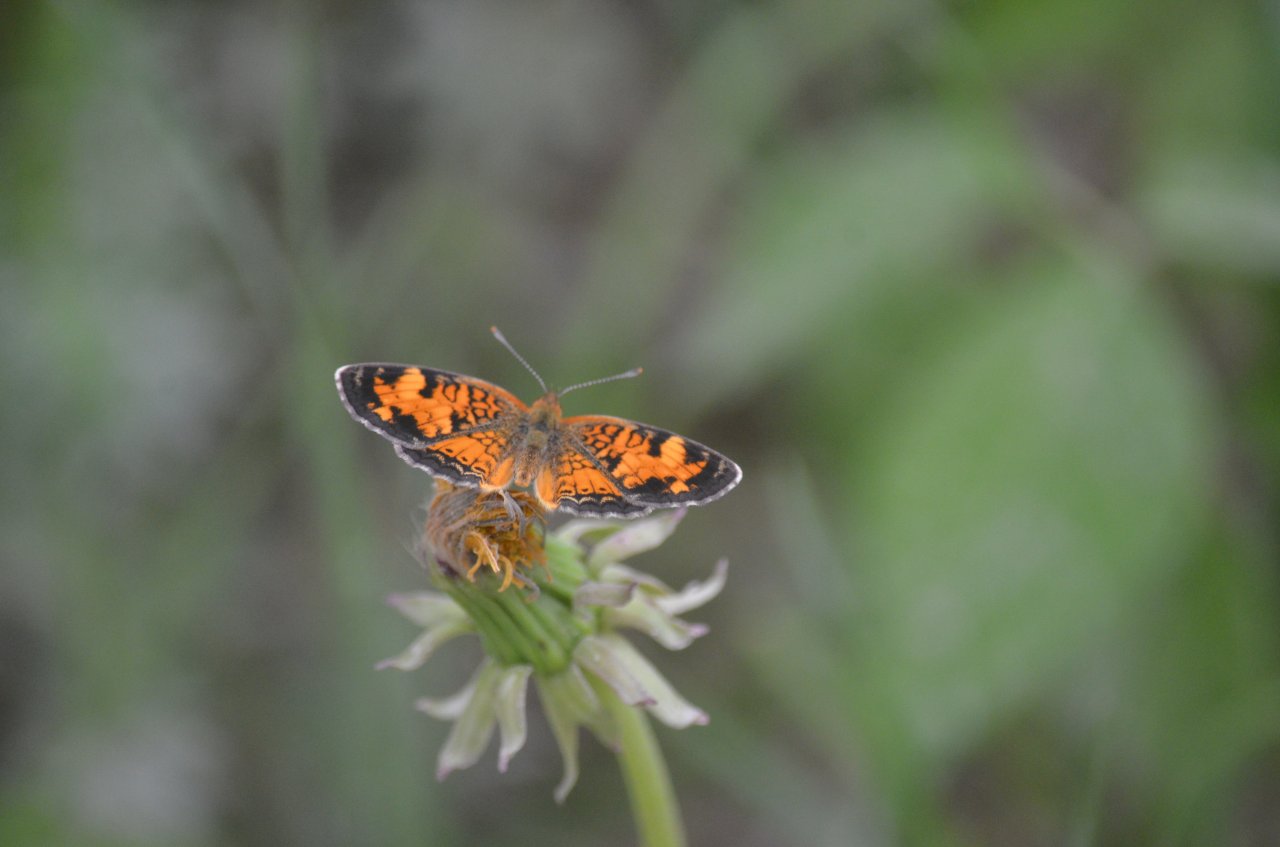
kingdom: Animalia
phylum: Arthropoda
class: Insecta
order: Lepidoptera
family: Nymphalidae
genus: Phyciodes
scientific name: Phyciodes tharos
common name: Pearl Crescent
